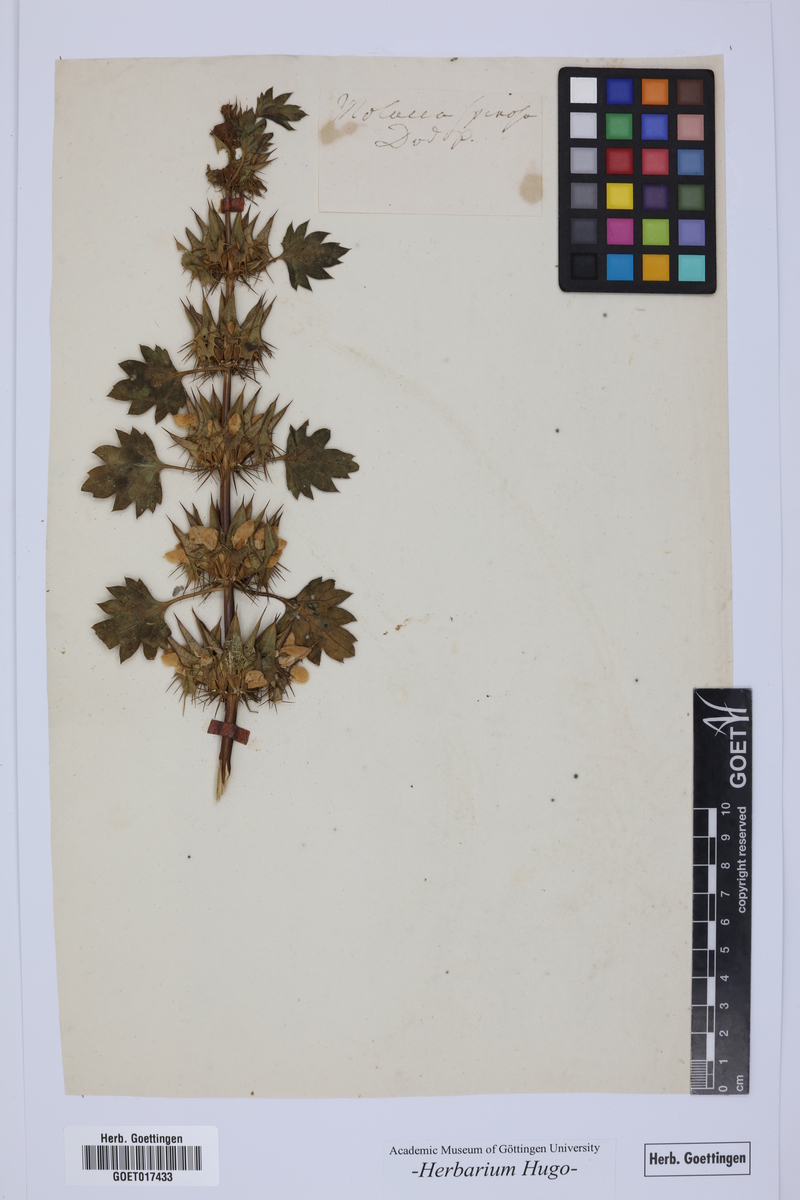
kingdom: Plantae
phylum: Tracheophyta
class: Magnoliopsida
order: Lamiales
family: Lamiaceae
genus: Moluccella
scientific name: Moluccella spinosa
